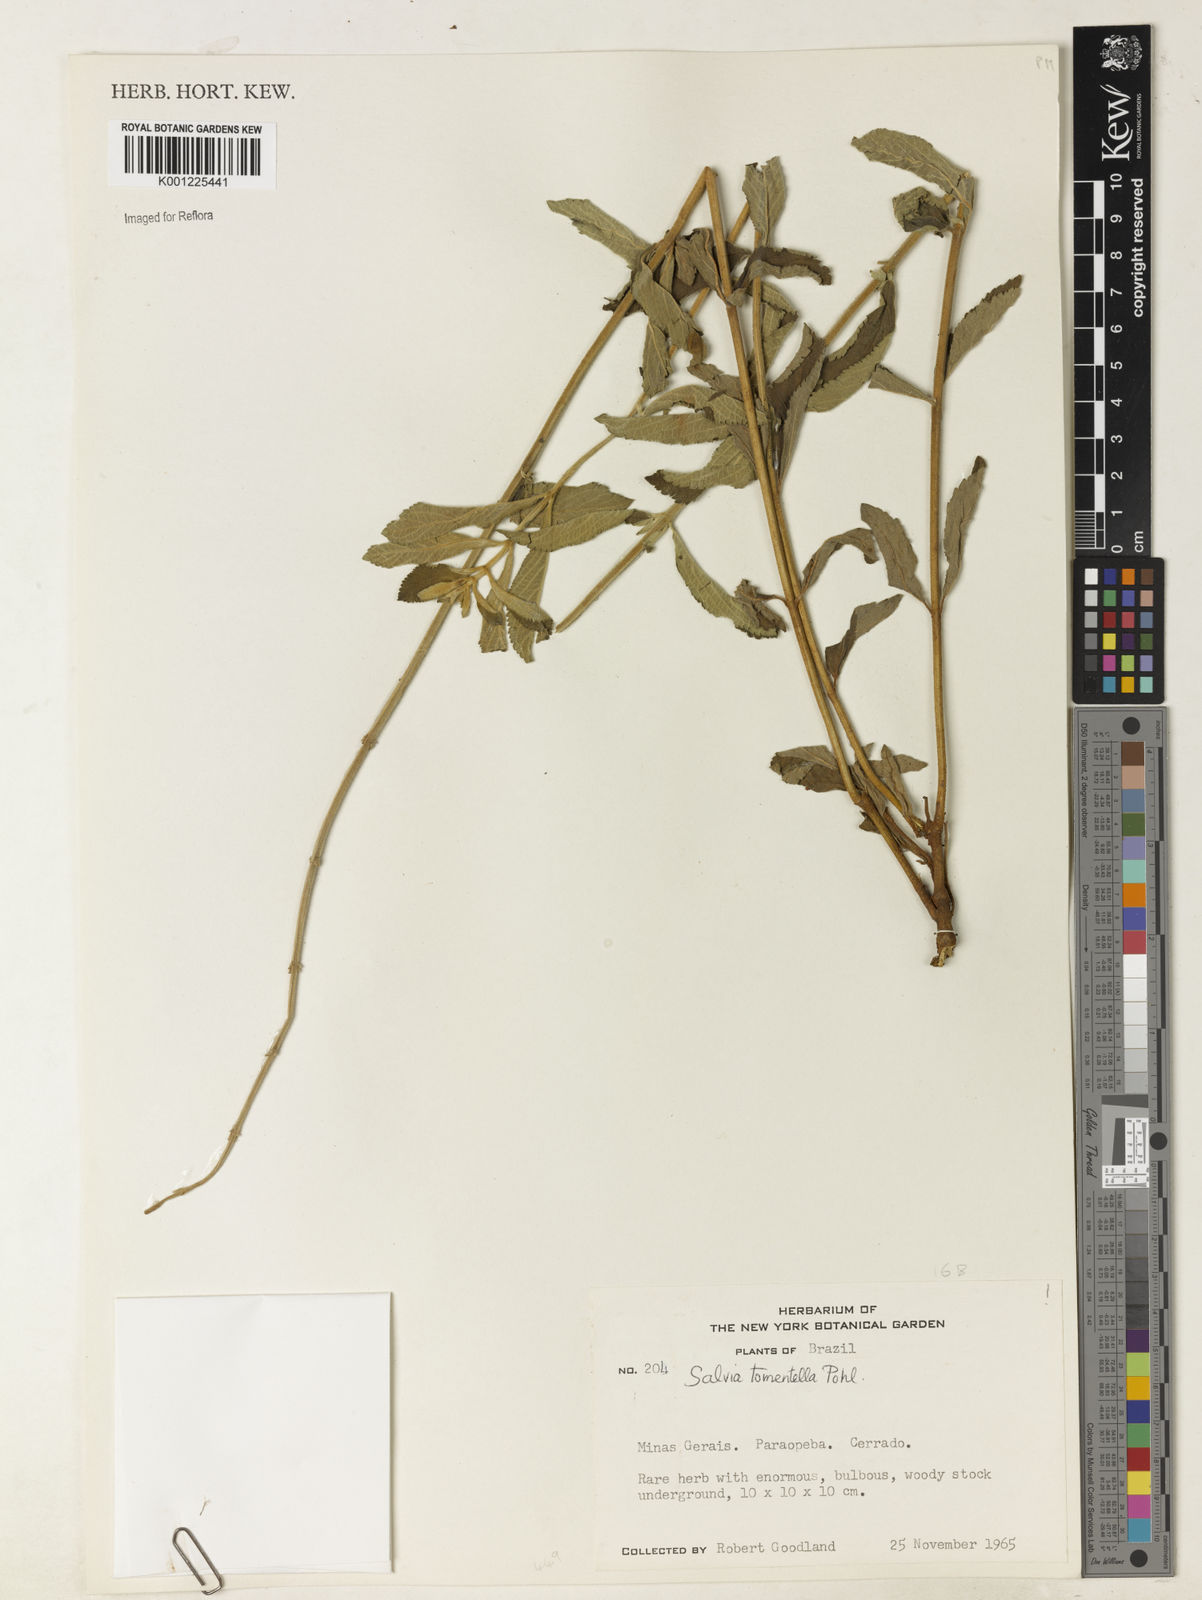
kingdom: Plantae
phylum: Tracheophyta
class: Magnoliopsida
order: Lamiales
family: Lamiaceae
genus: Salvia
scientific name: Salvia tomentella
